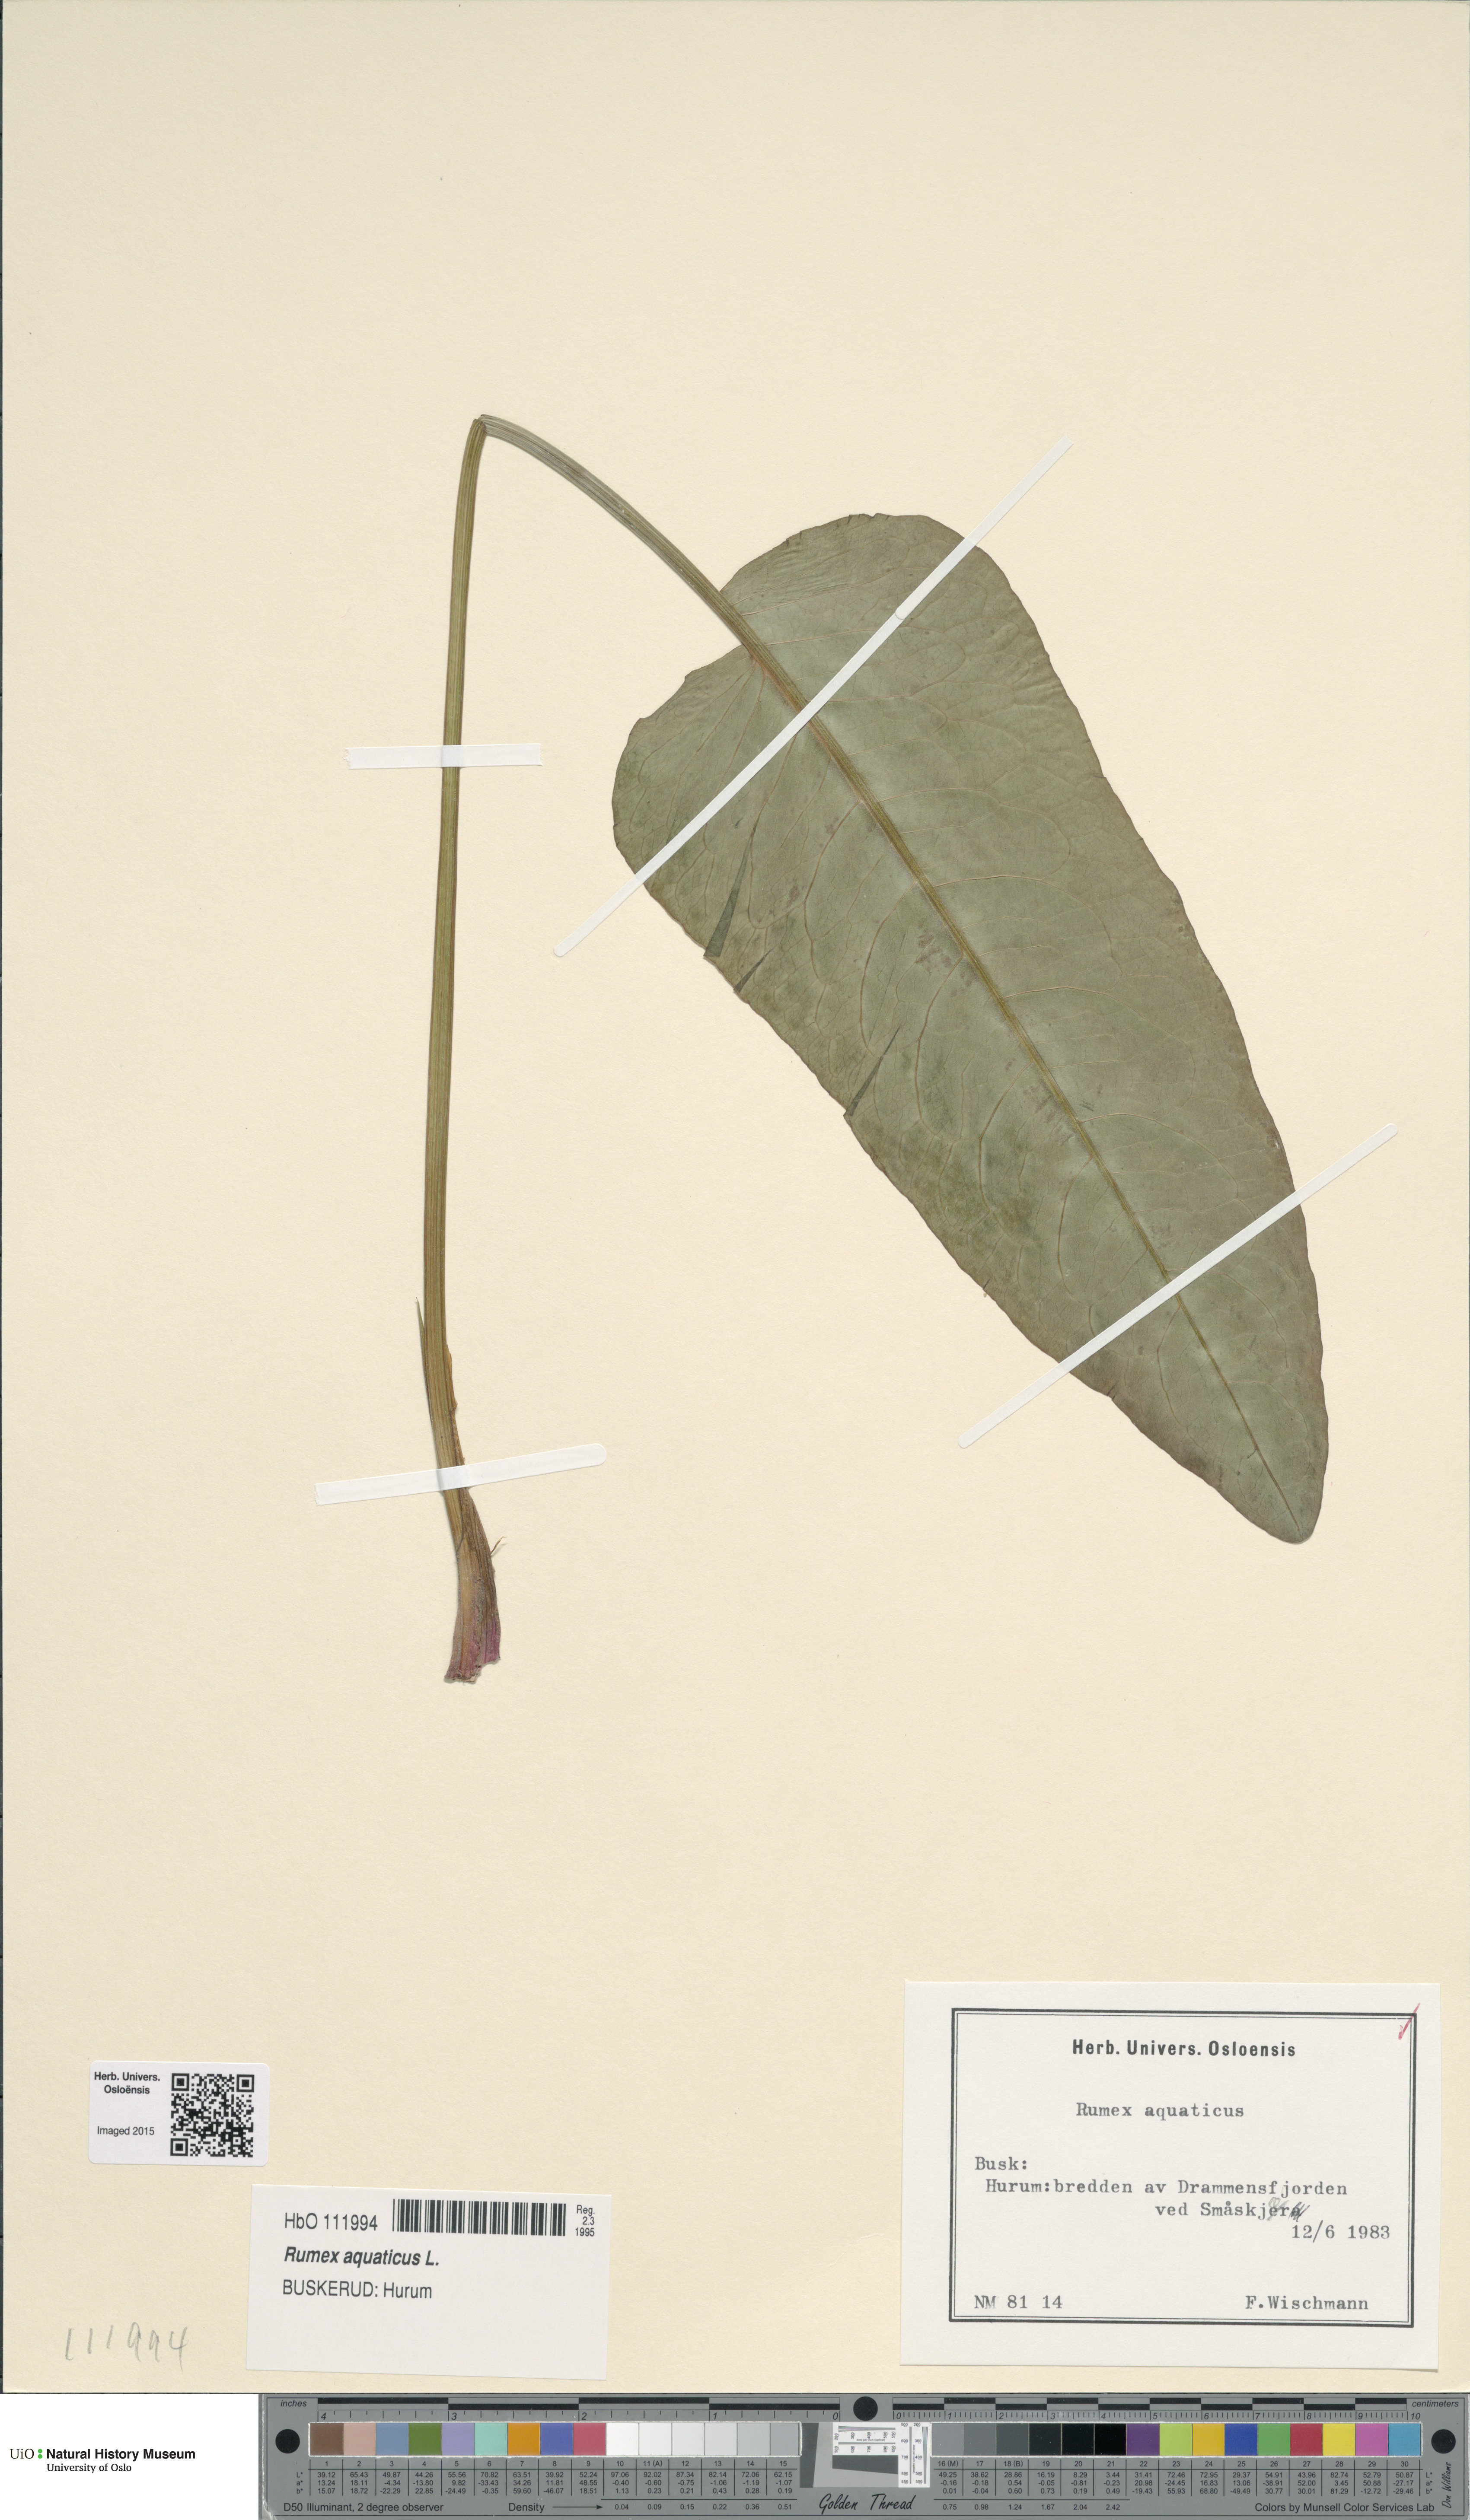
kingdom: Plantae
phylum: Tracheophyta
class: Magnoliopsida
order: Caryophyllales
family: Polygonaceae
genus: Rumex
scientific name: Rumex aquaticus
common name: Scottish dock
